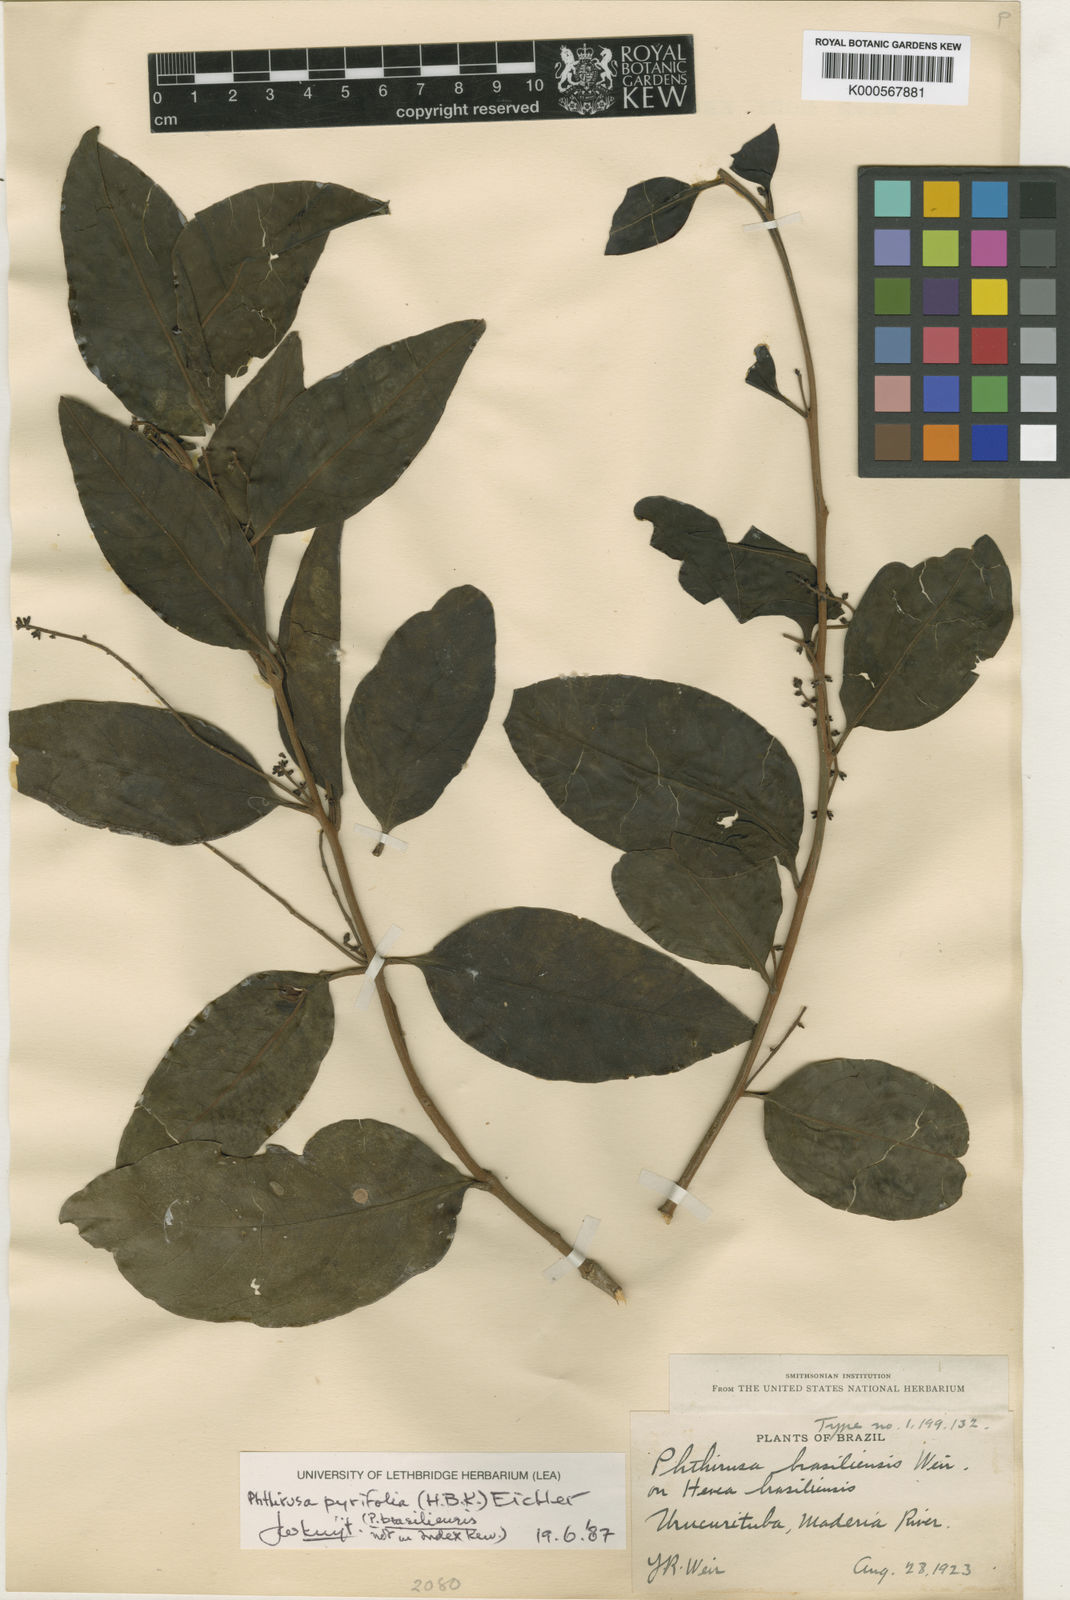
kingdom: Plantae
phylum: Tracheophyta
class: Magnoliopsida
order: Santalales
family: Loranthaceae
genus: Passovia
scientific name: Passovia pyrifolia
